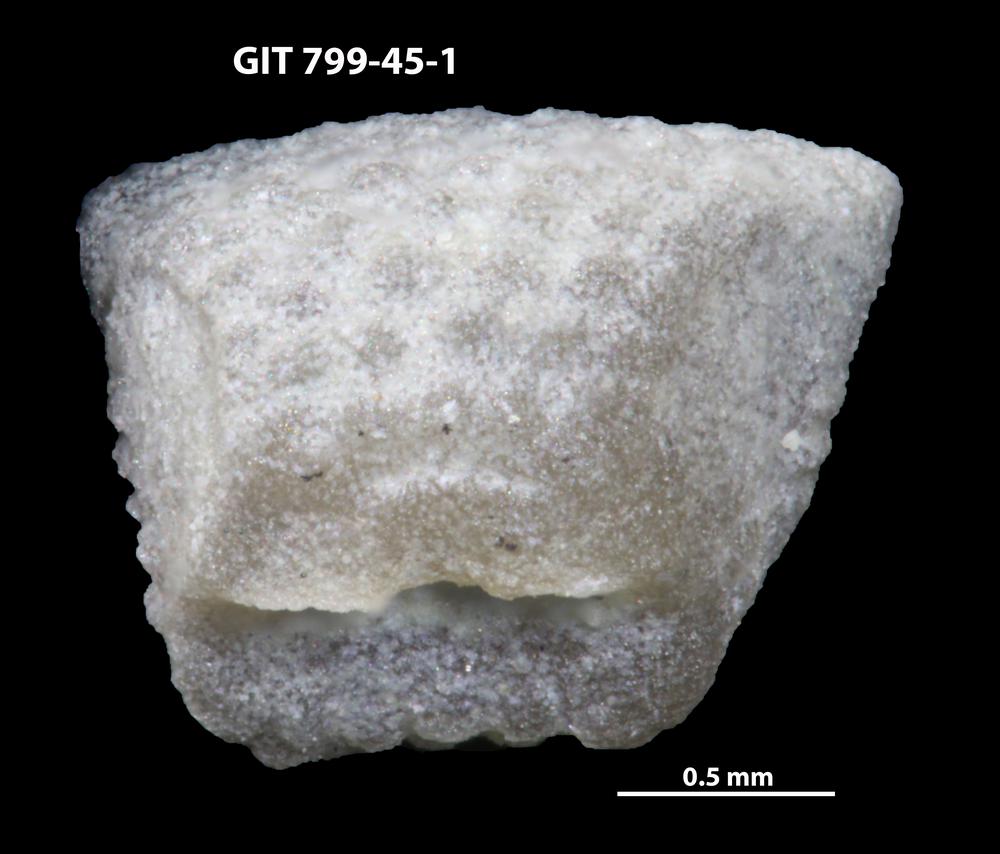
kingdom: Animalia
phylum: Echinodermata
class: Crinoidea
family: Cyclocystoididae
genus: Cyclocystoides
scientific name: Cyclocystoides
